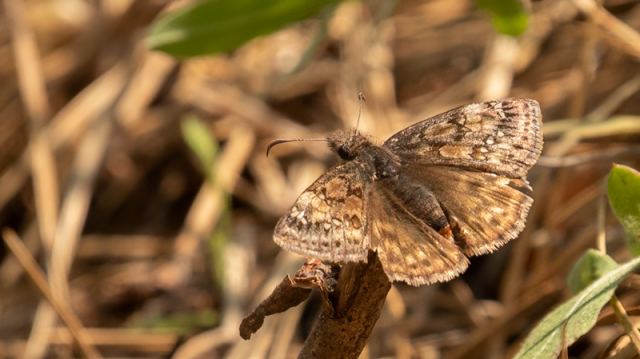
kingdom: Animalia
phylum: Arthropoda
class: Insecta
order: Lepidoptera
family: Hesperiidae
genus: Gesta
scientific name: Gesta
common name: Juvenal's Duskywing
